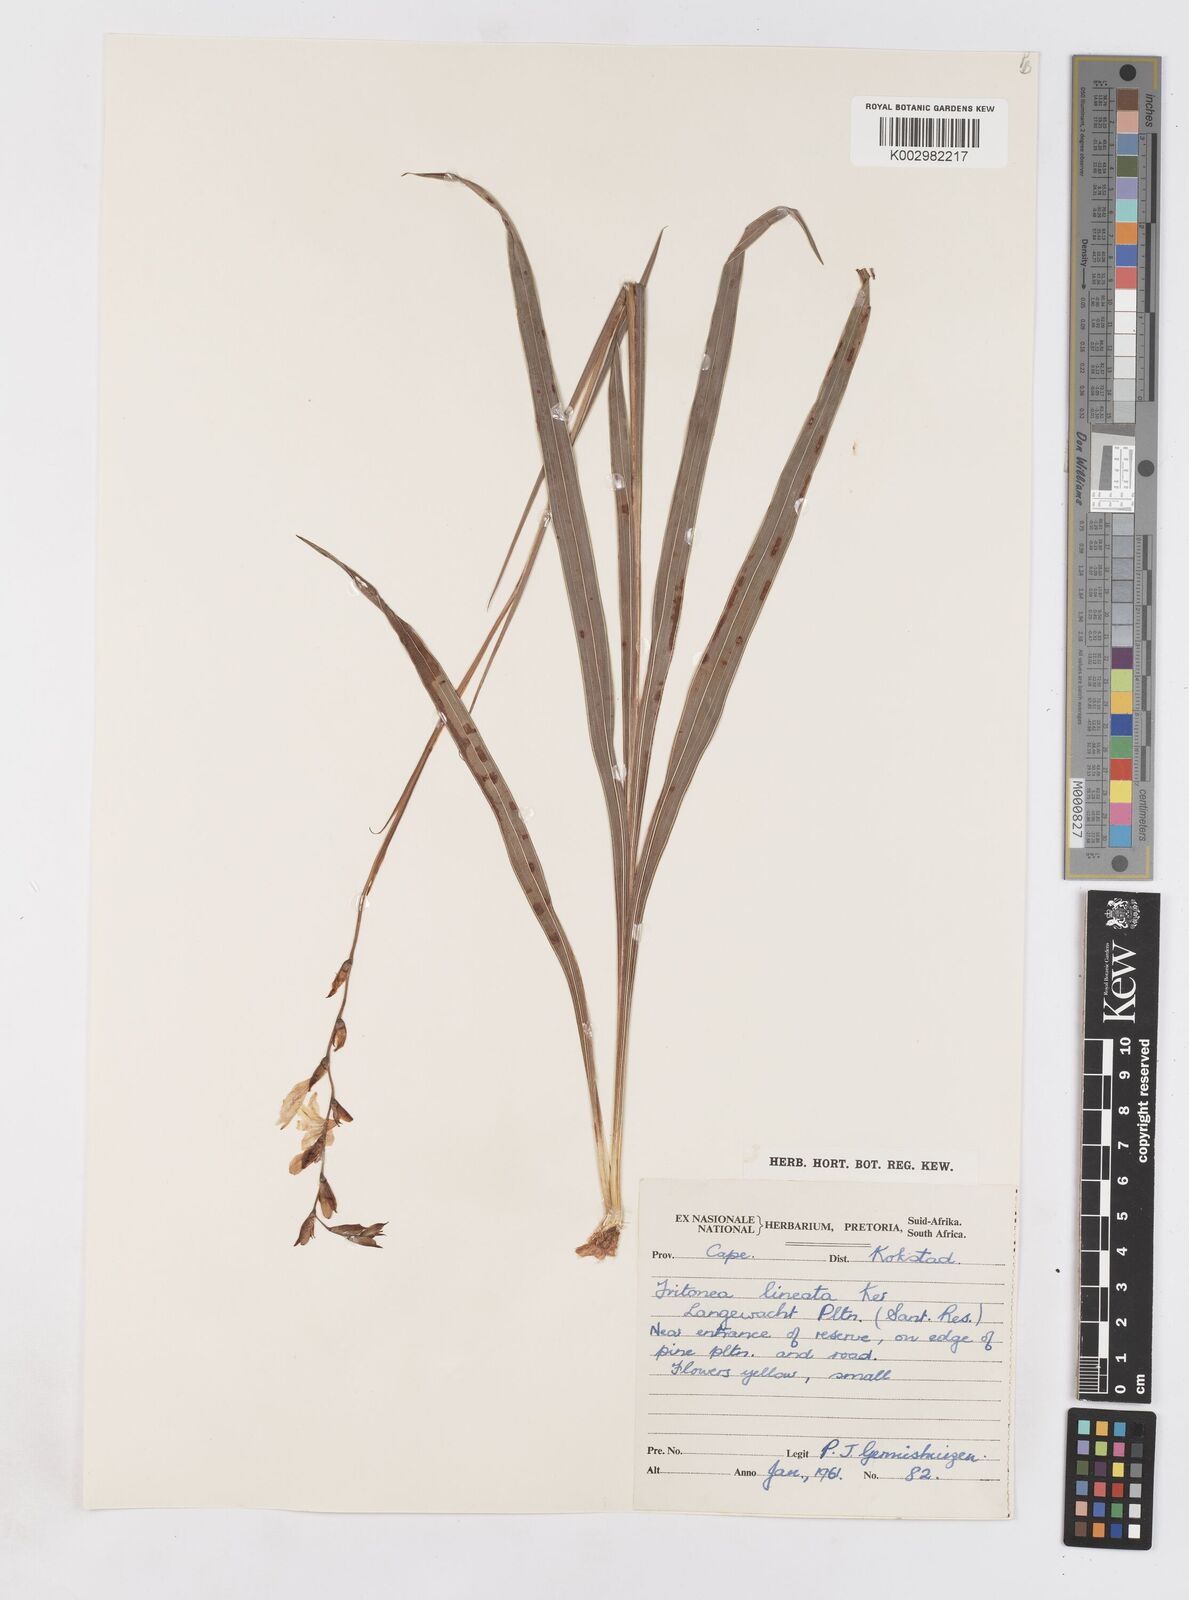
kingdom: Plantae
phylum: Tracheophyta
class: Liliopsida
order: Asparagales
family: Iridaceae
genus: Tritonia
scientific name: Tritonia gladiolaris
